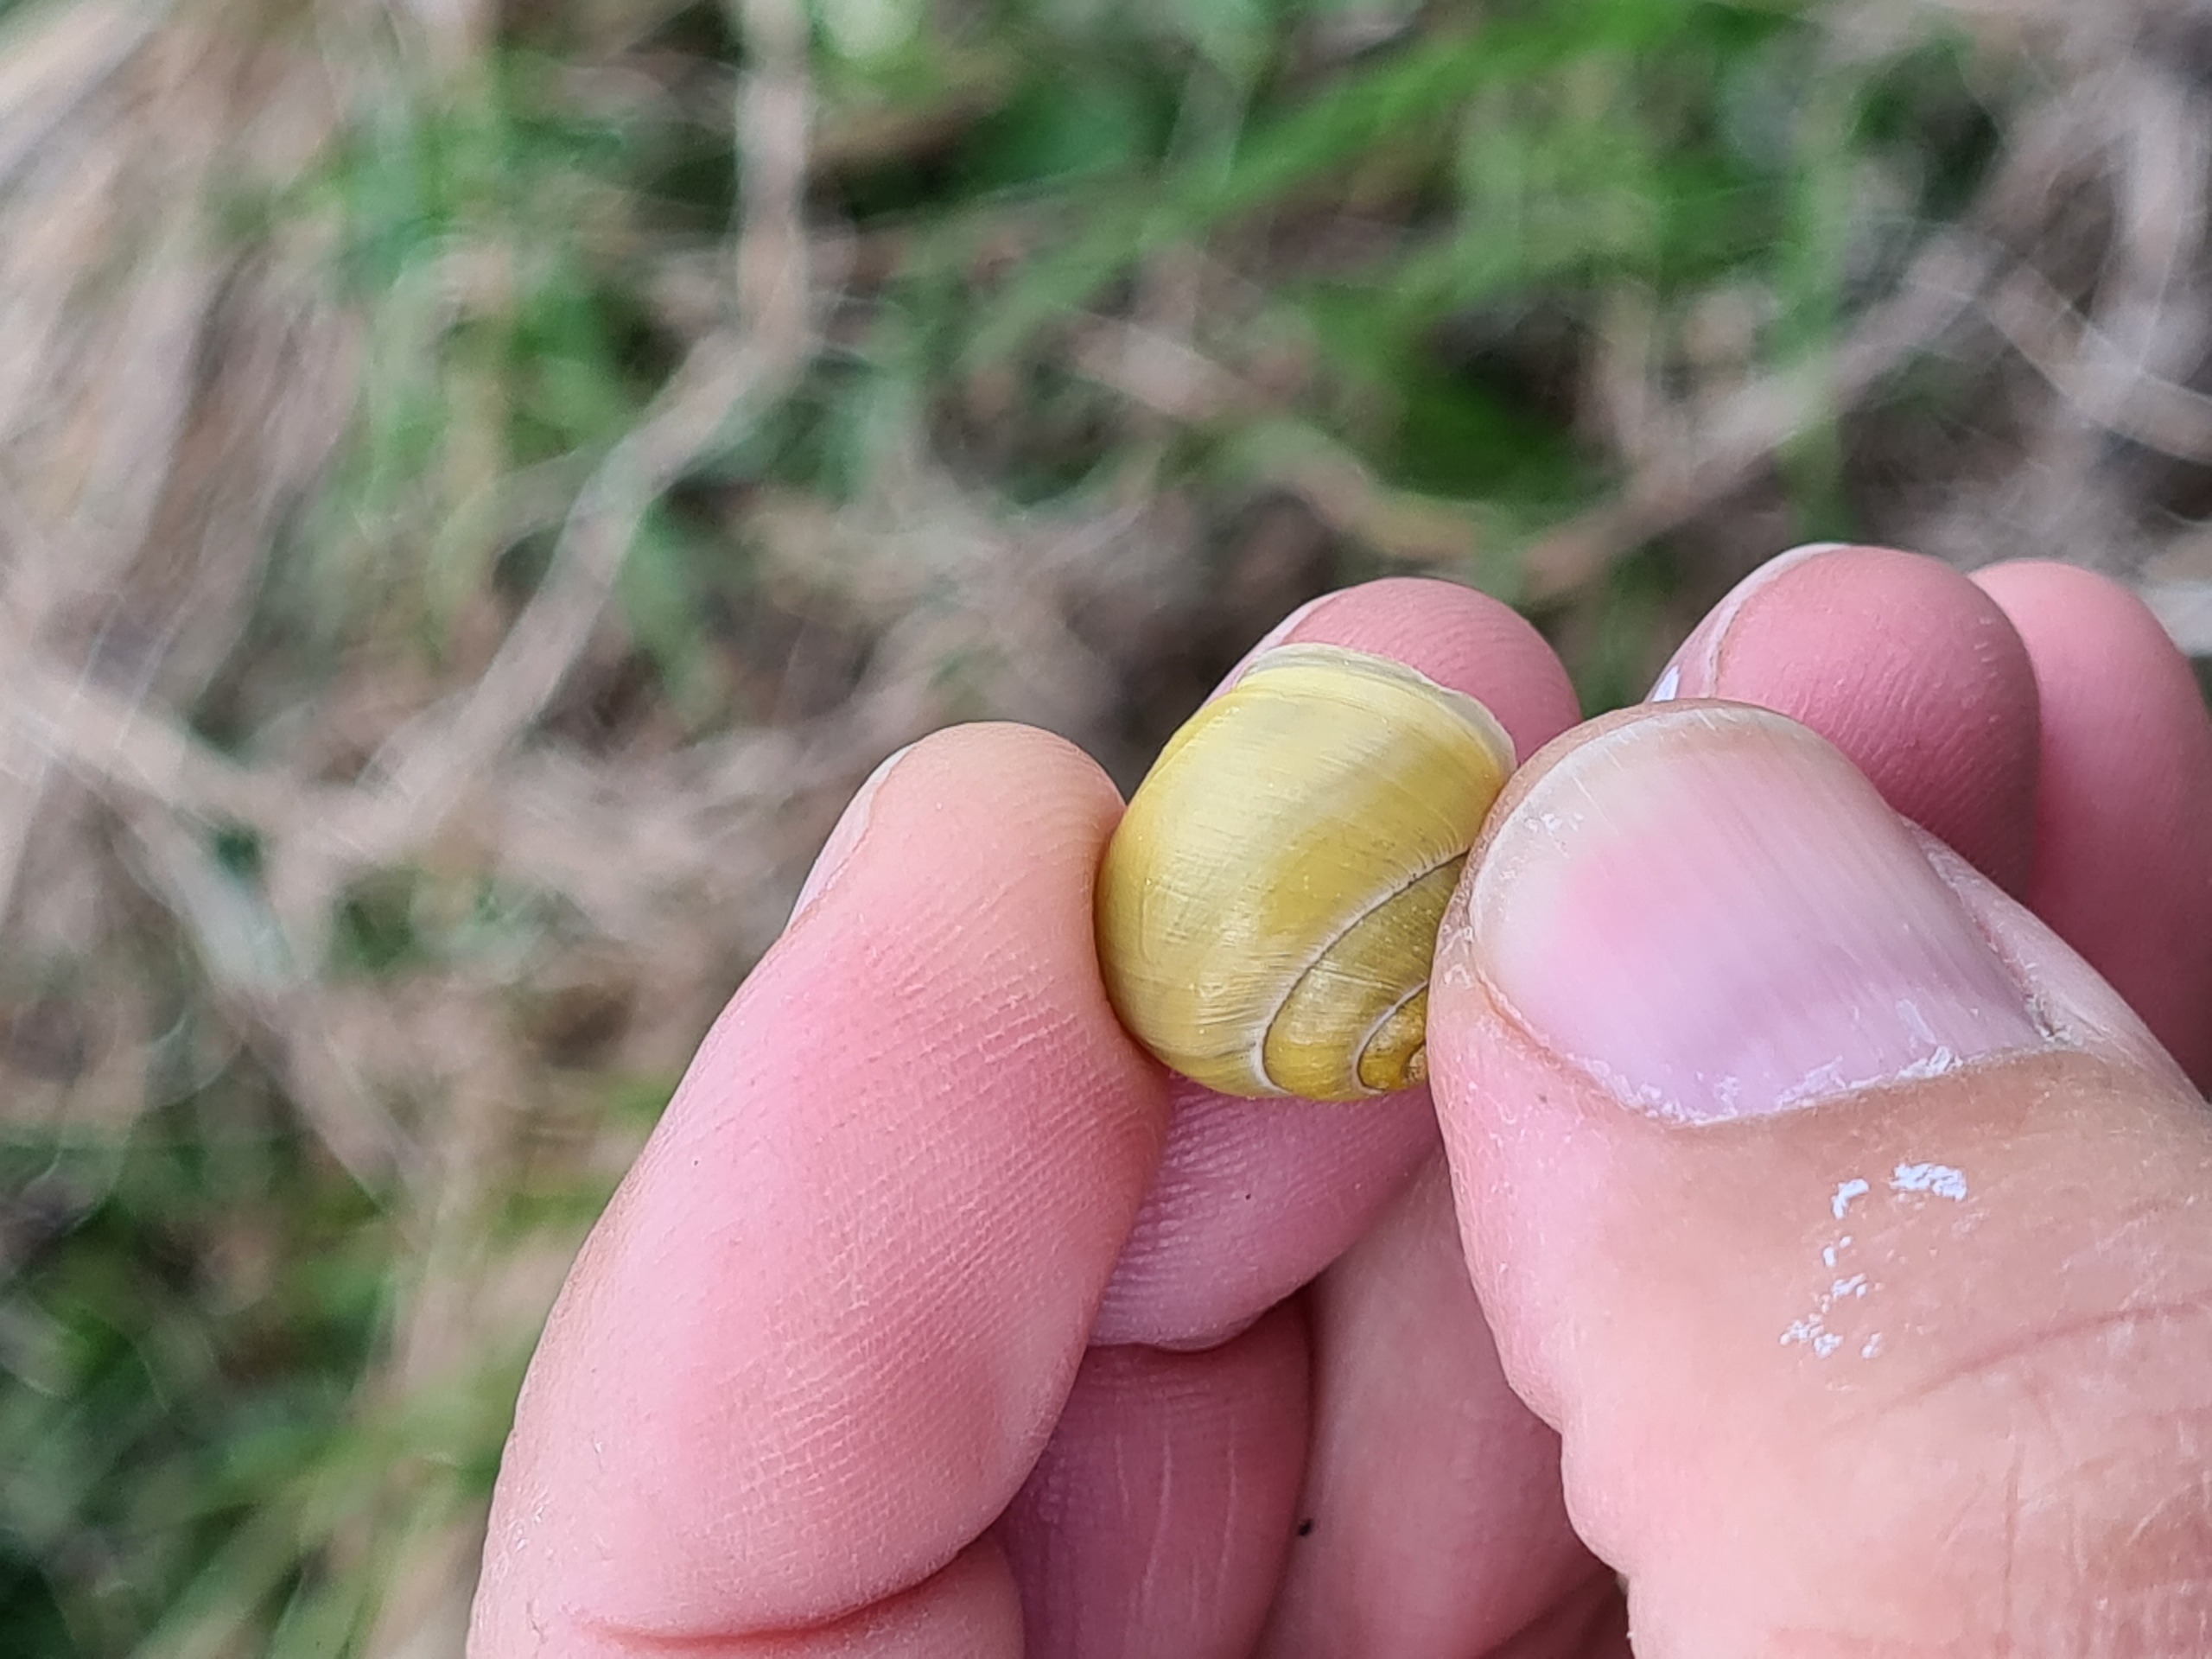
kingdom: Animalia
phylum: Mollusca
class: Gastropoda
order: Stylommatophora
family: Helicidae
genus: Cepaea
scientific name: Cepaea hortensis
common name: Havesnegl
